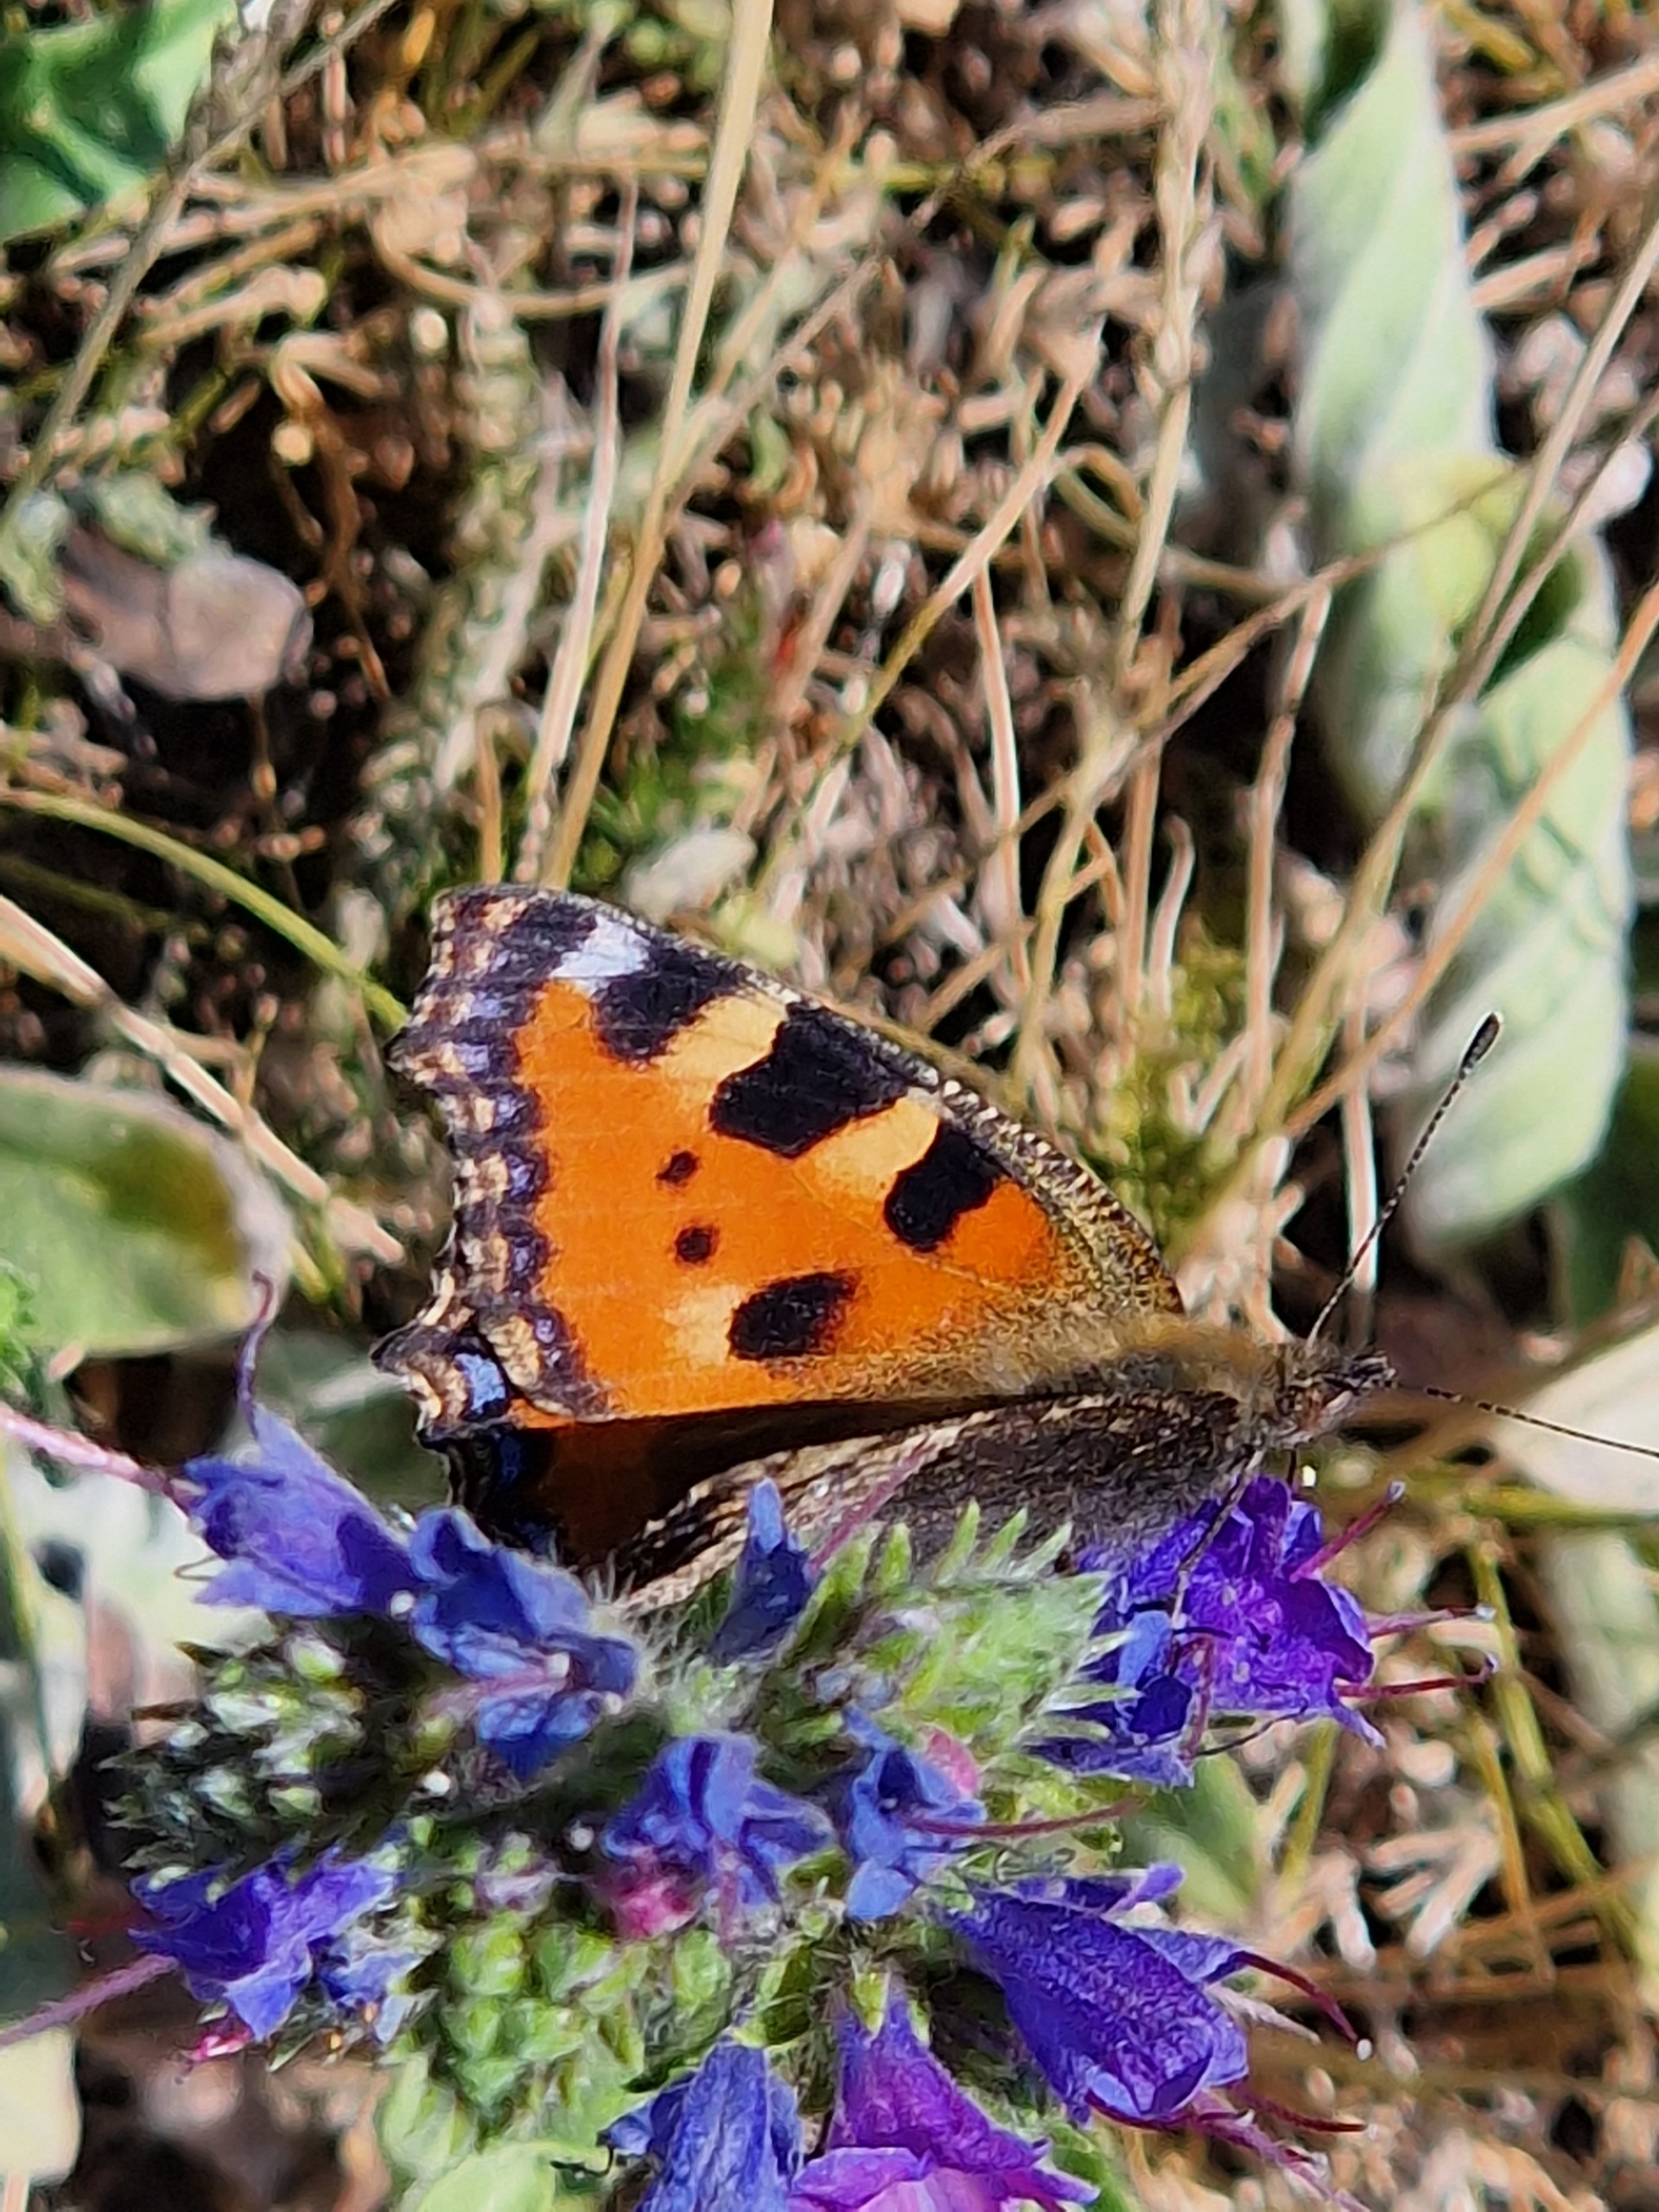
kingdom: Animalia
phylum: Arthropoda
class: Insecta
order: Lepidoptera
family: Nymphalidae
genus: Aglais
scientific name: Aglais urticae
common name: Nældens takvinge
